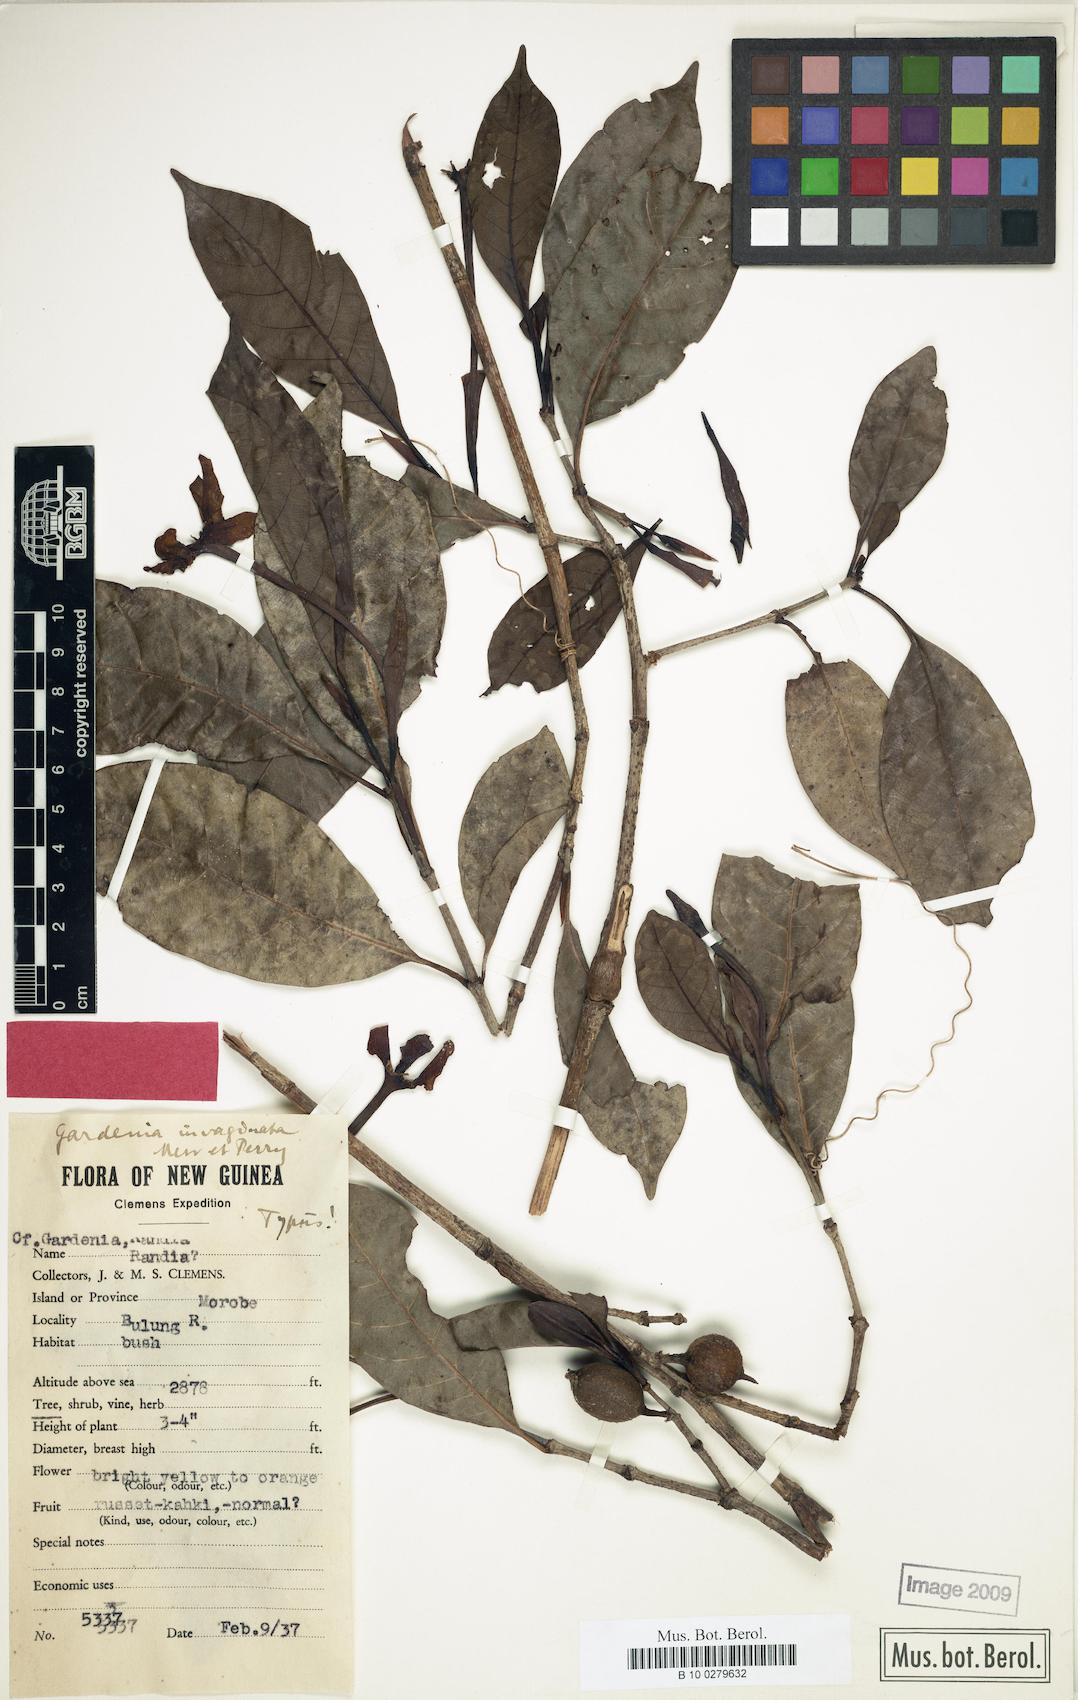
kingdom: Plantae
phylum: Tracheophyta
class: Magnoliopsida
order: Gentianales
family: Rubiaceae
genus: Gardenia
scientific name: Gardenia invaginata
